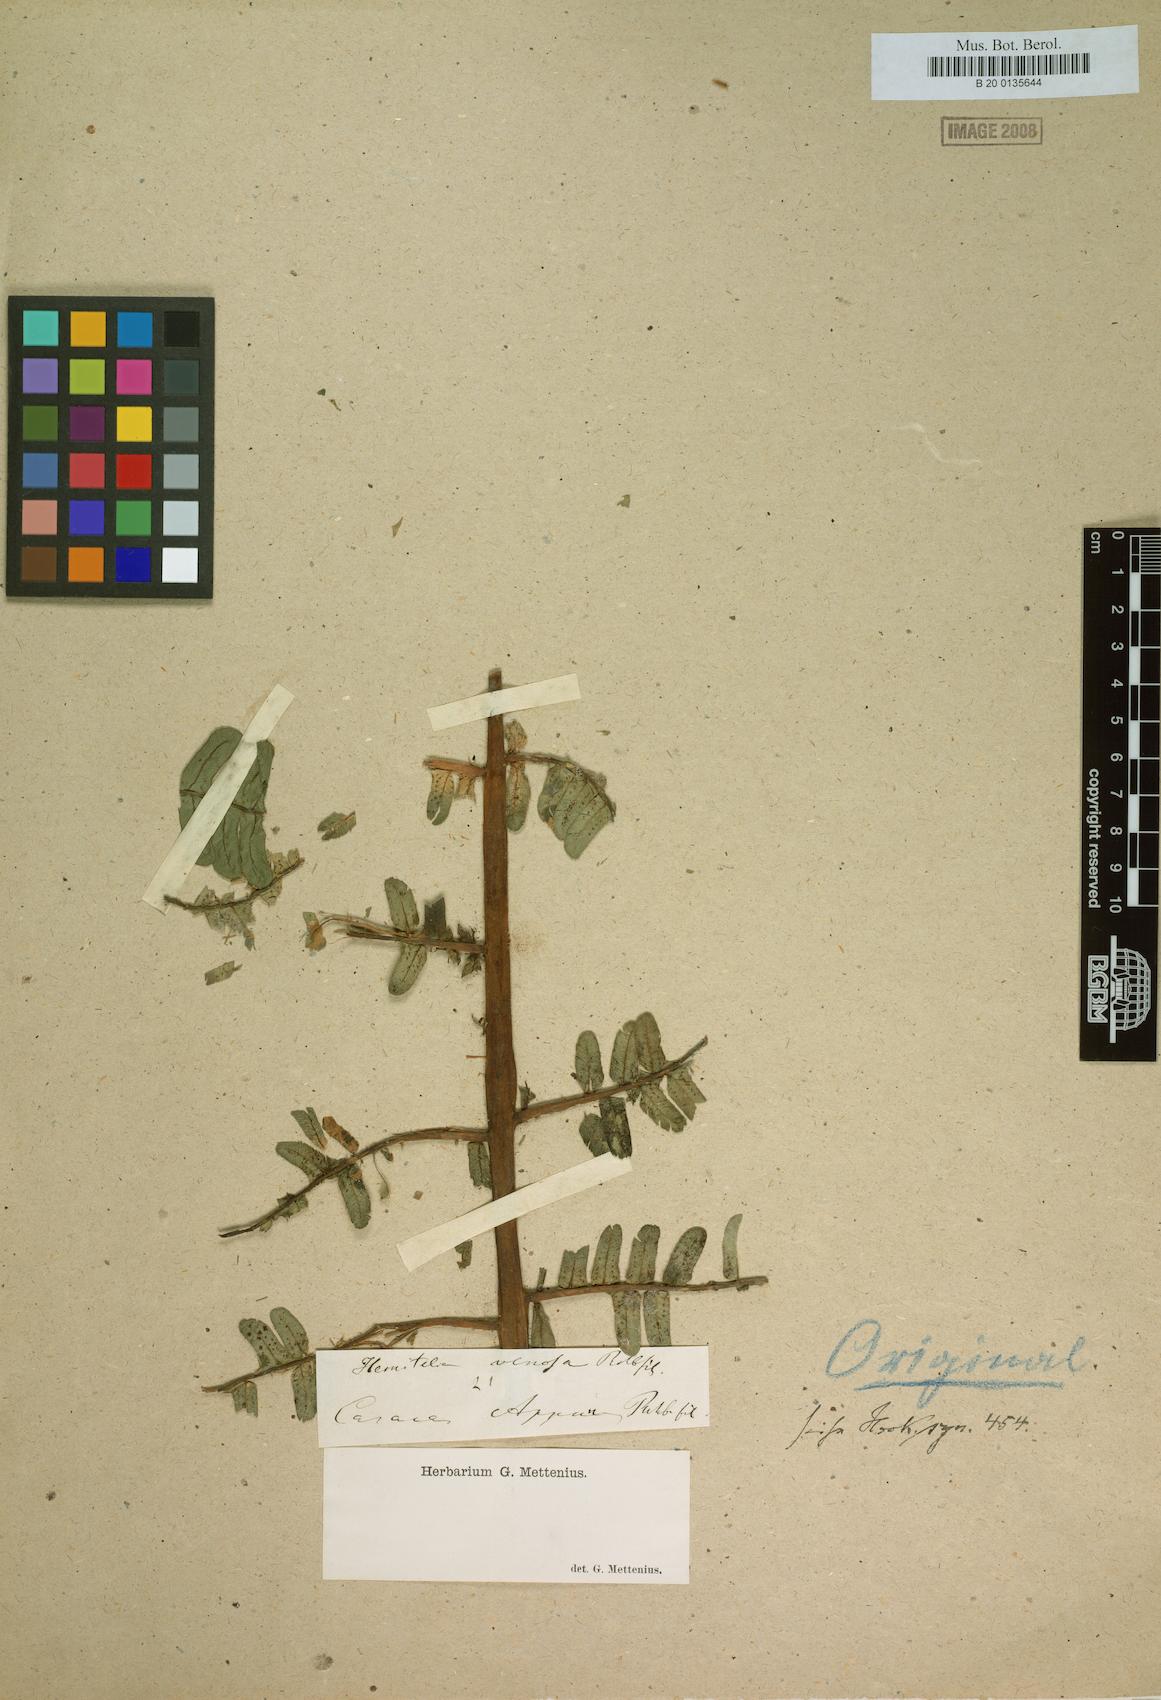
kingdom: Plantae
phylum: Tracheophyta
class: Polypodiopsida
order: Cyatheales
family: Cyatheaceae
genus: Cyathea
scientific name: Cyathea venosa
